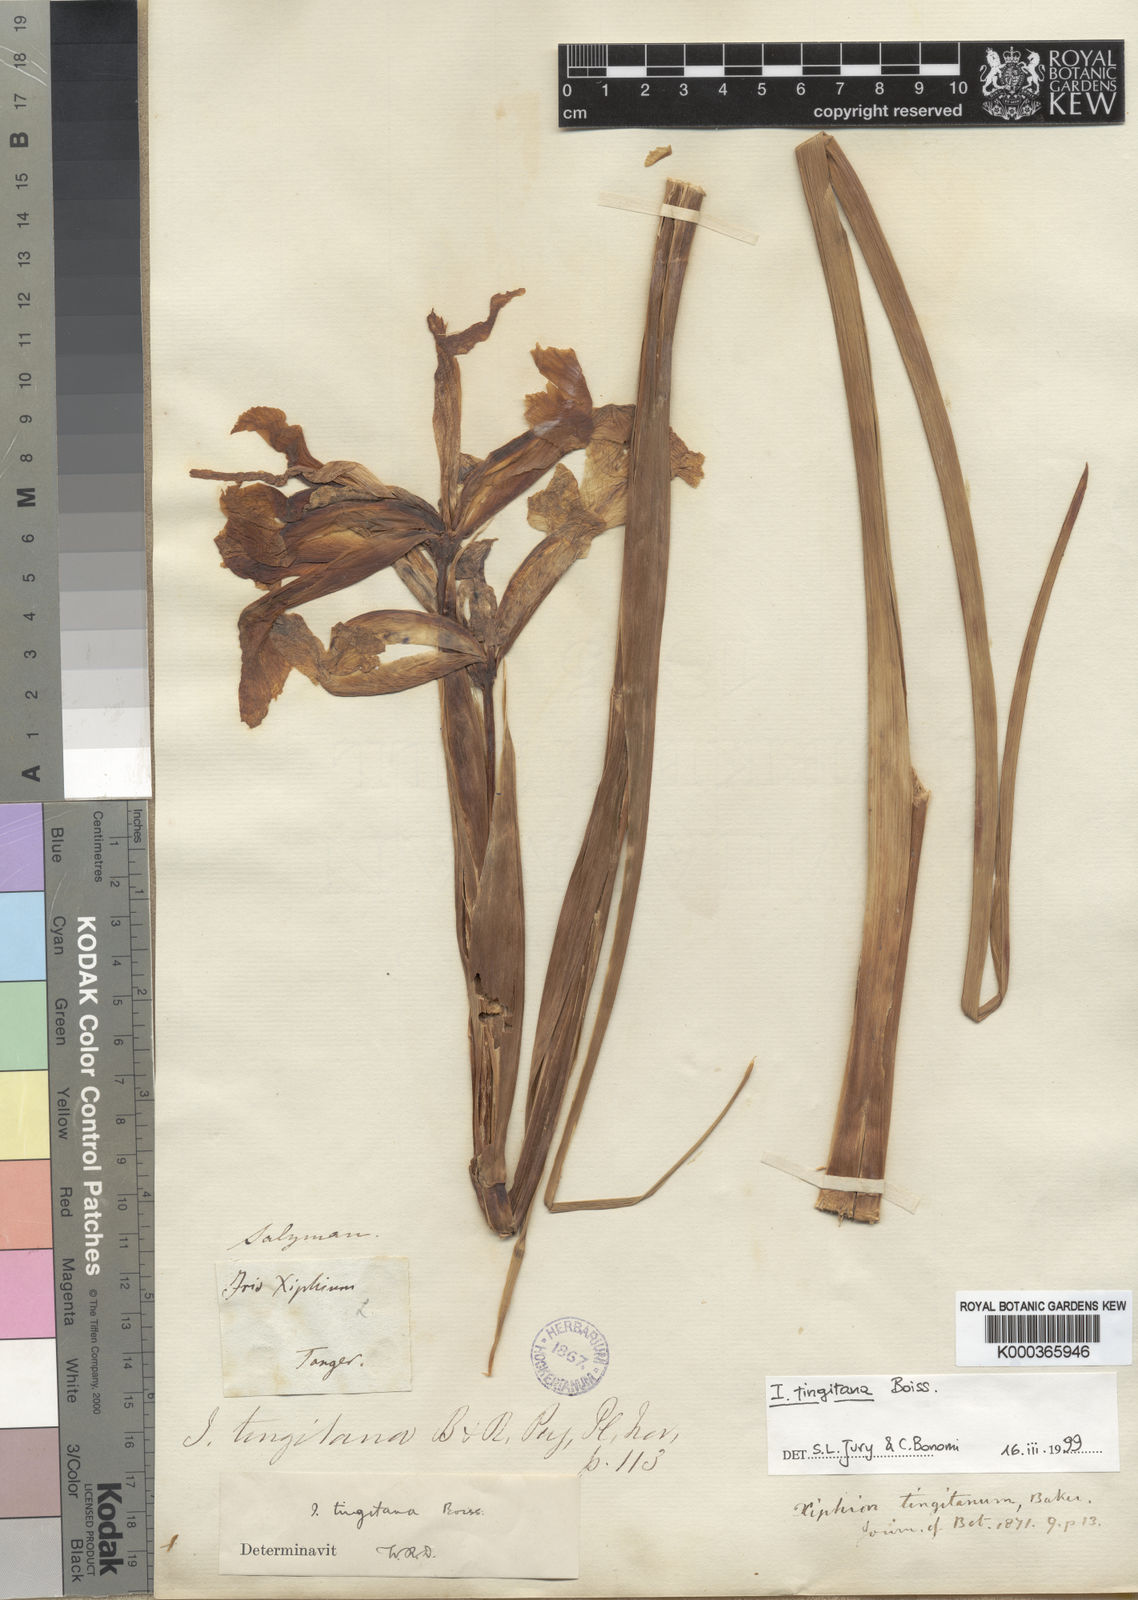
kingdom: Plantae
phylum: Tracheophyta
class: Liliopsida
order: Asparagales
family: Iridaceae
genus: Iris
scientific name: Iris tingitana
